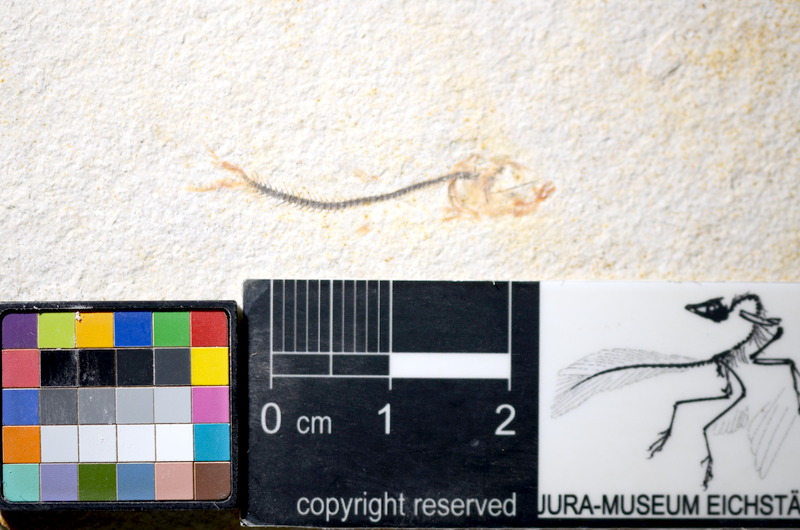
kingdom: Animalia
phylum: Chordata
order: Salmoniformes
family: Orthogonikleithridae
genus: Orthogonikleithrus
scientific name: Orthogonikleithrus hoelli
